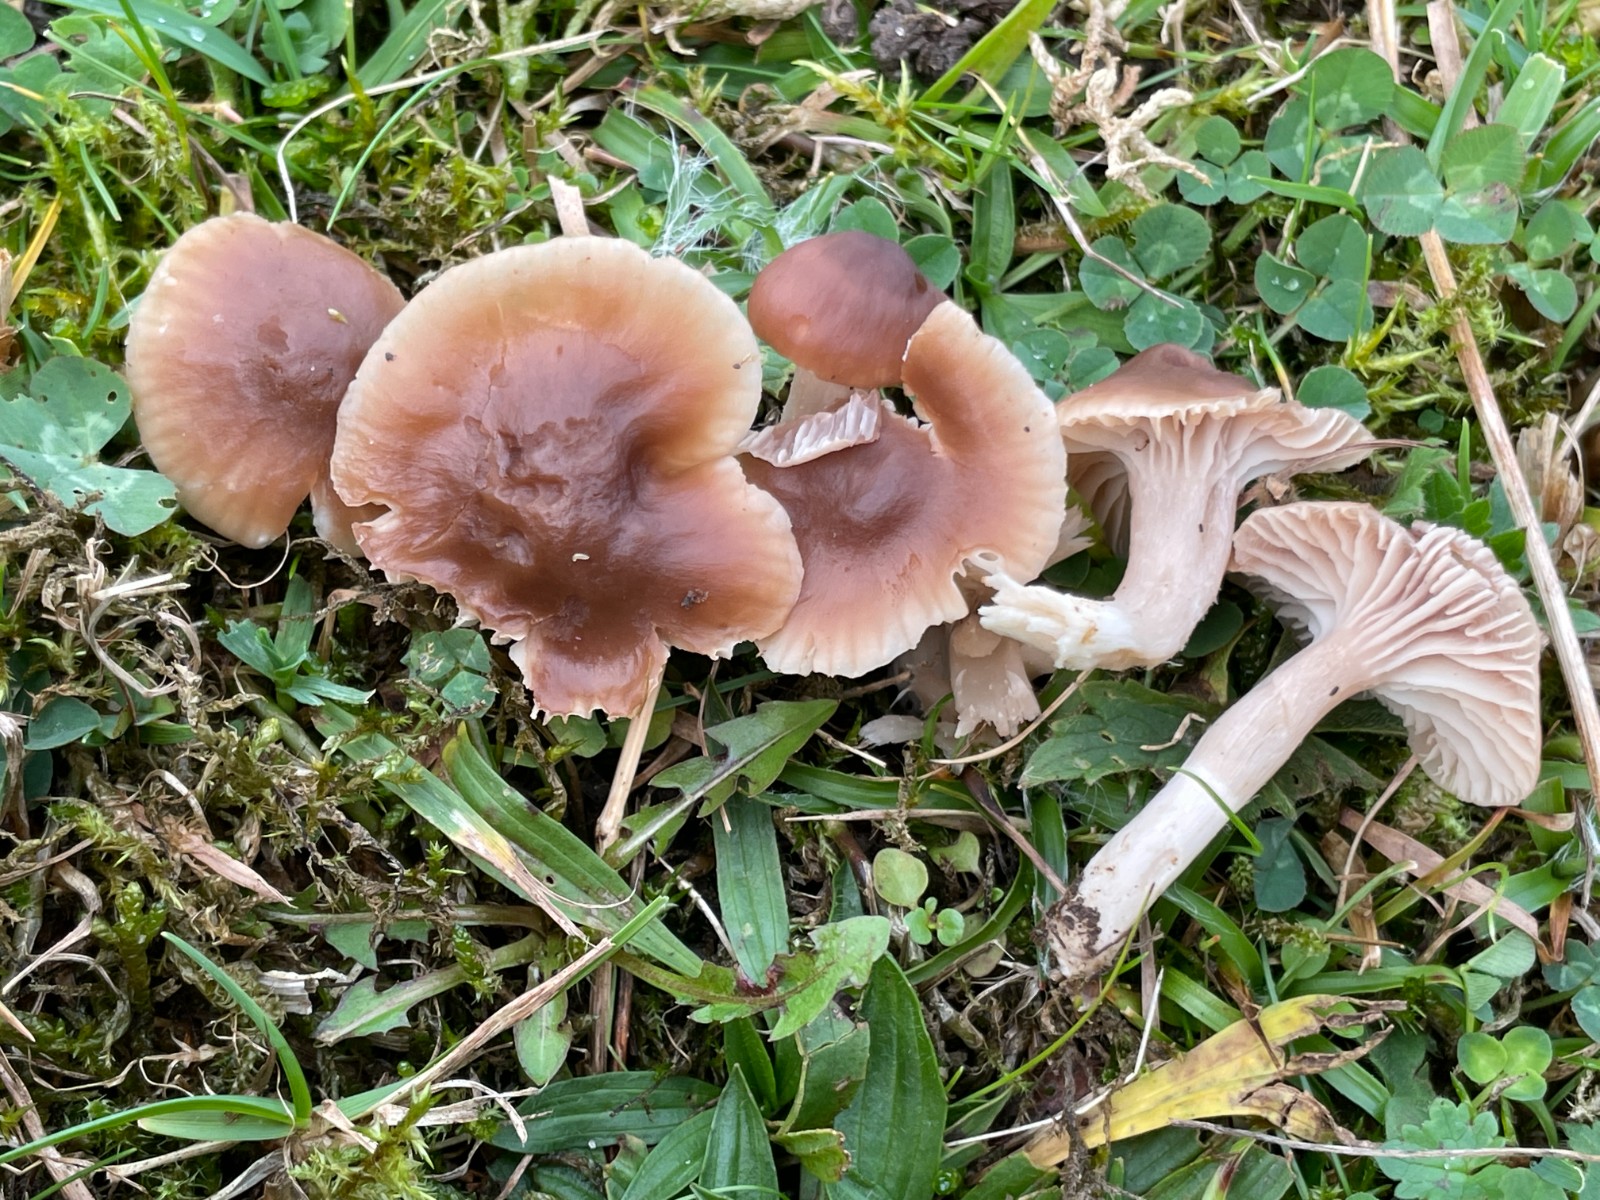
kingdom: Fungi
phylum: Basidiomycota
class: Agaricomycetes
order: Agaricales
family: Hygrophoraceae
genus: Cuphophyllus
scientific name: Cuphophyllus colemannianus
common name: rødbrun vokshat
